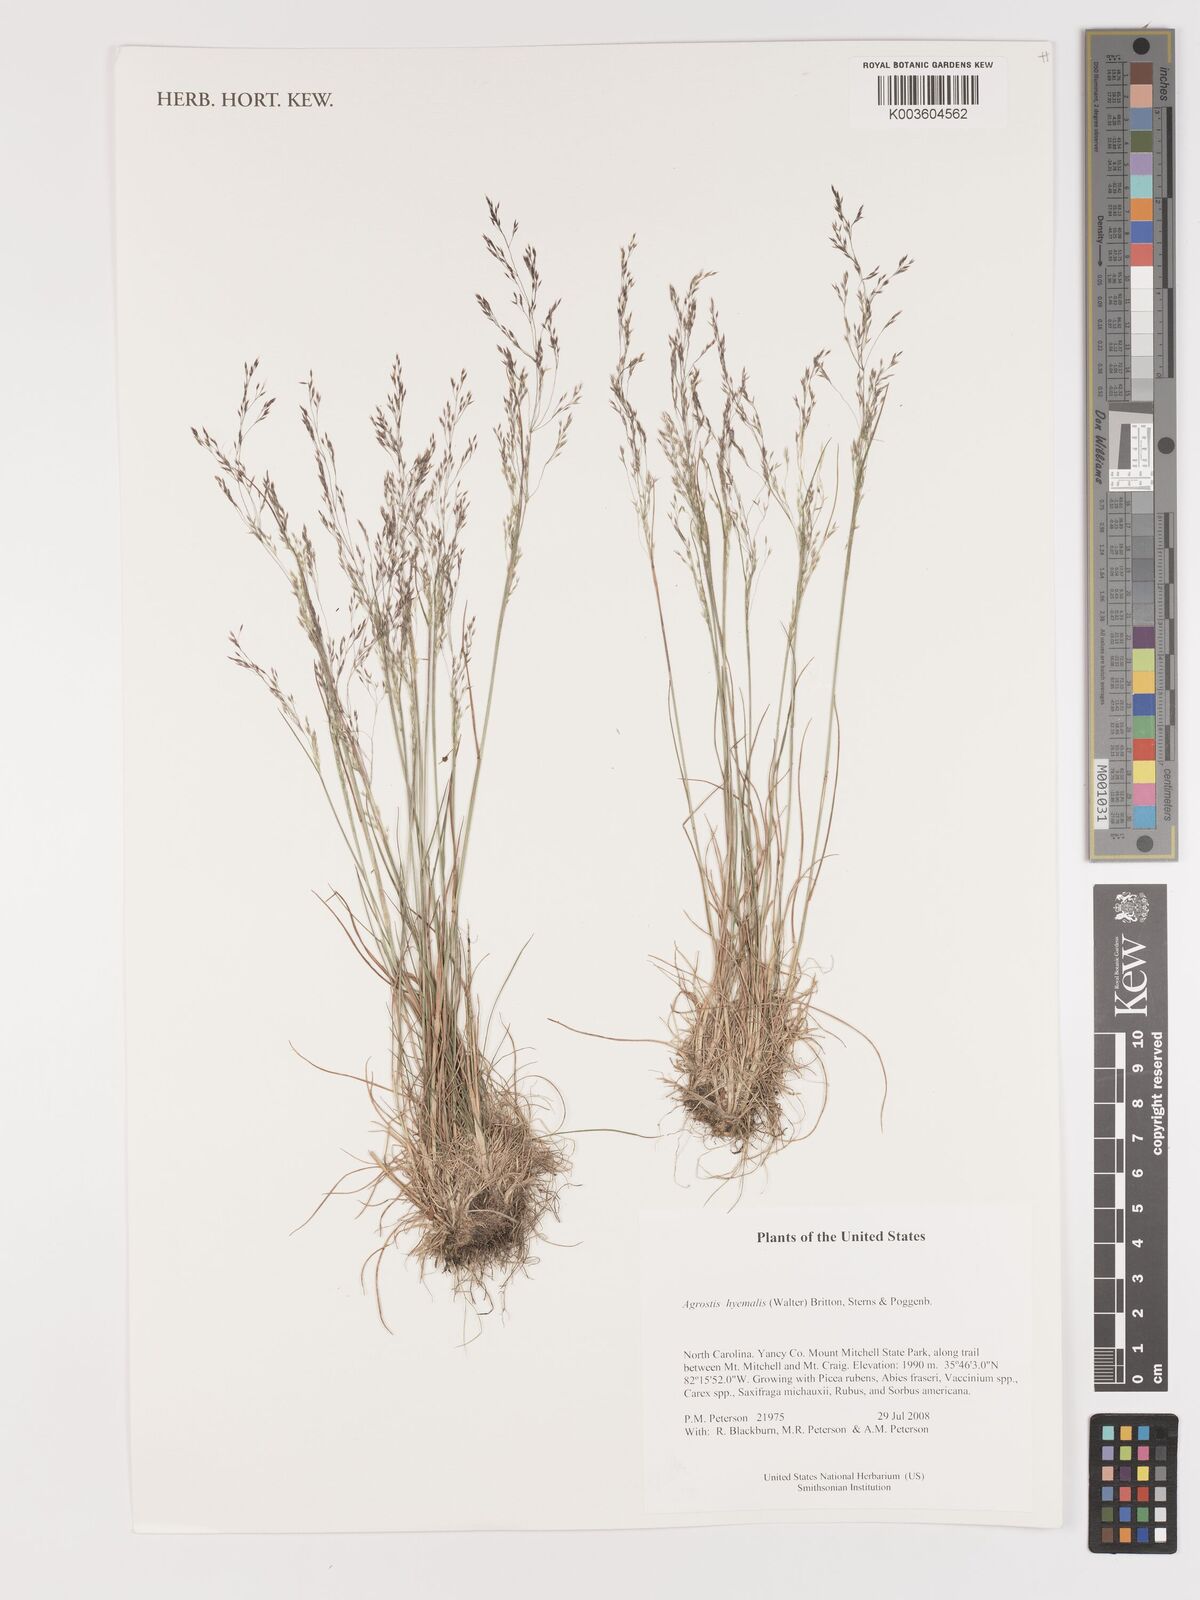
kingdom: Plantae
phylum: Tracheophyta
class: Liliopsida
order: Poales
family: Poaceae
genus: Agrostis
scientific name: Agrostis hyemalis
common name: Small bent
